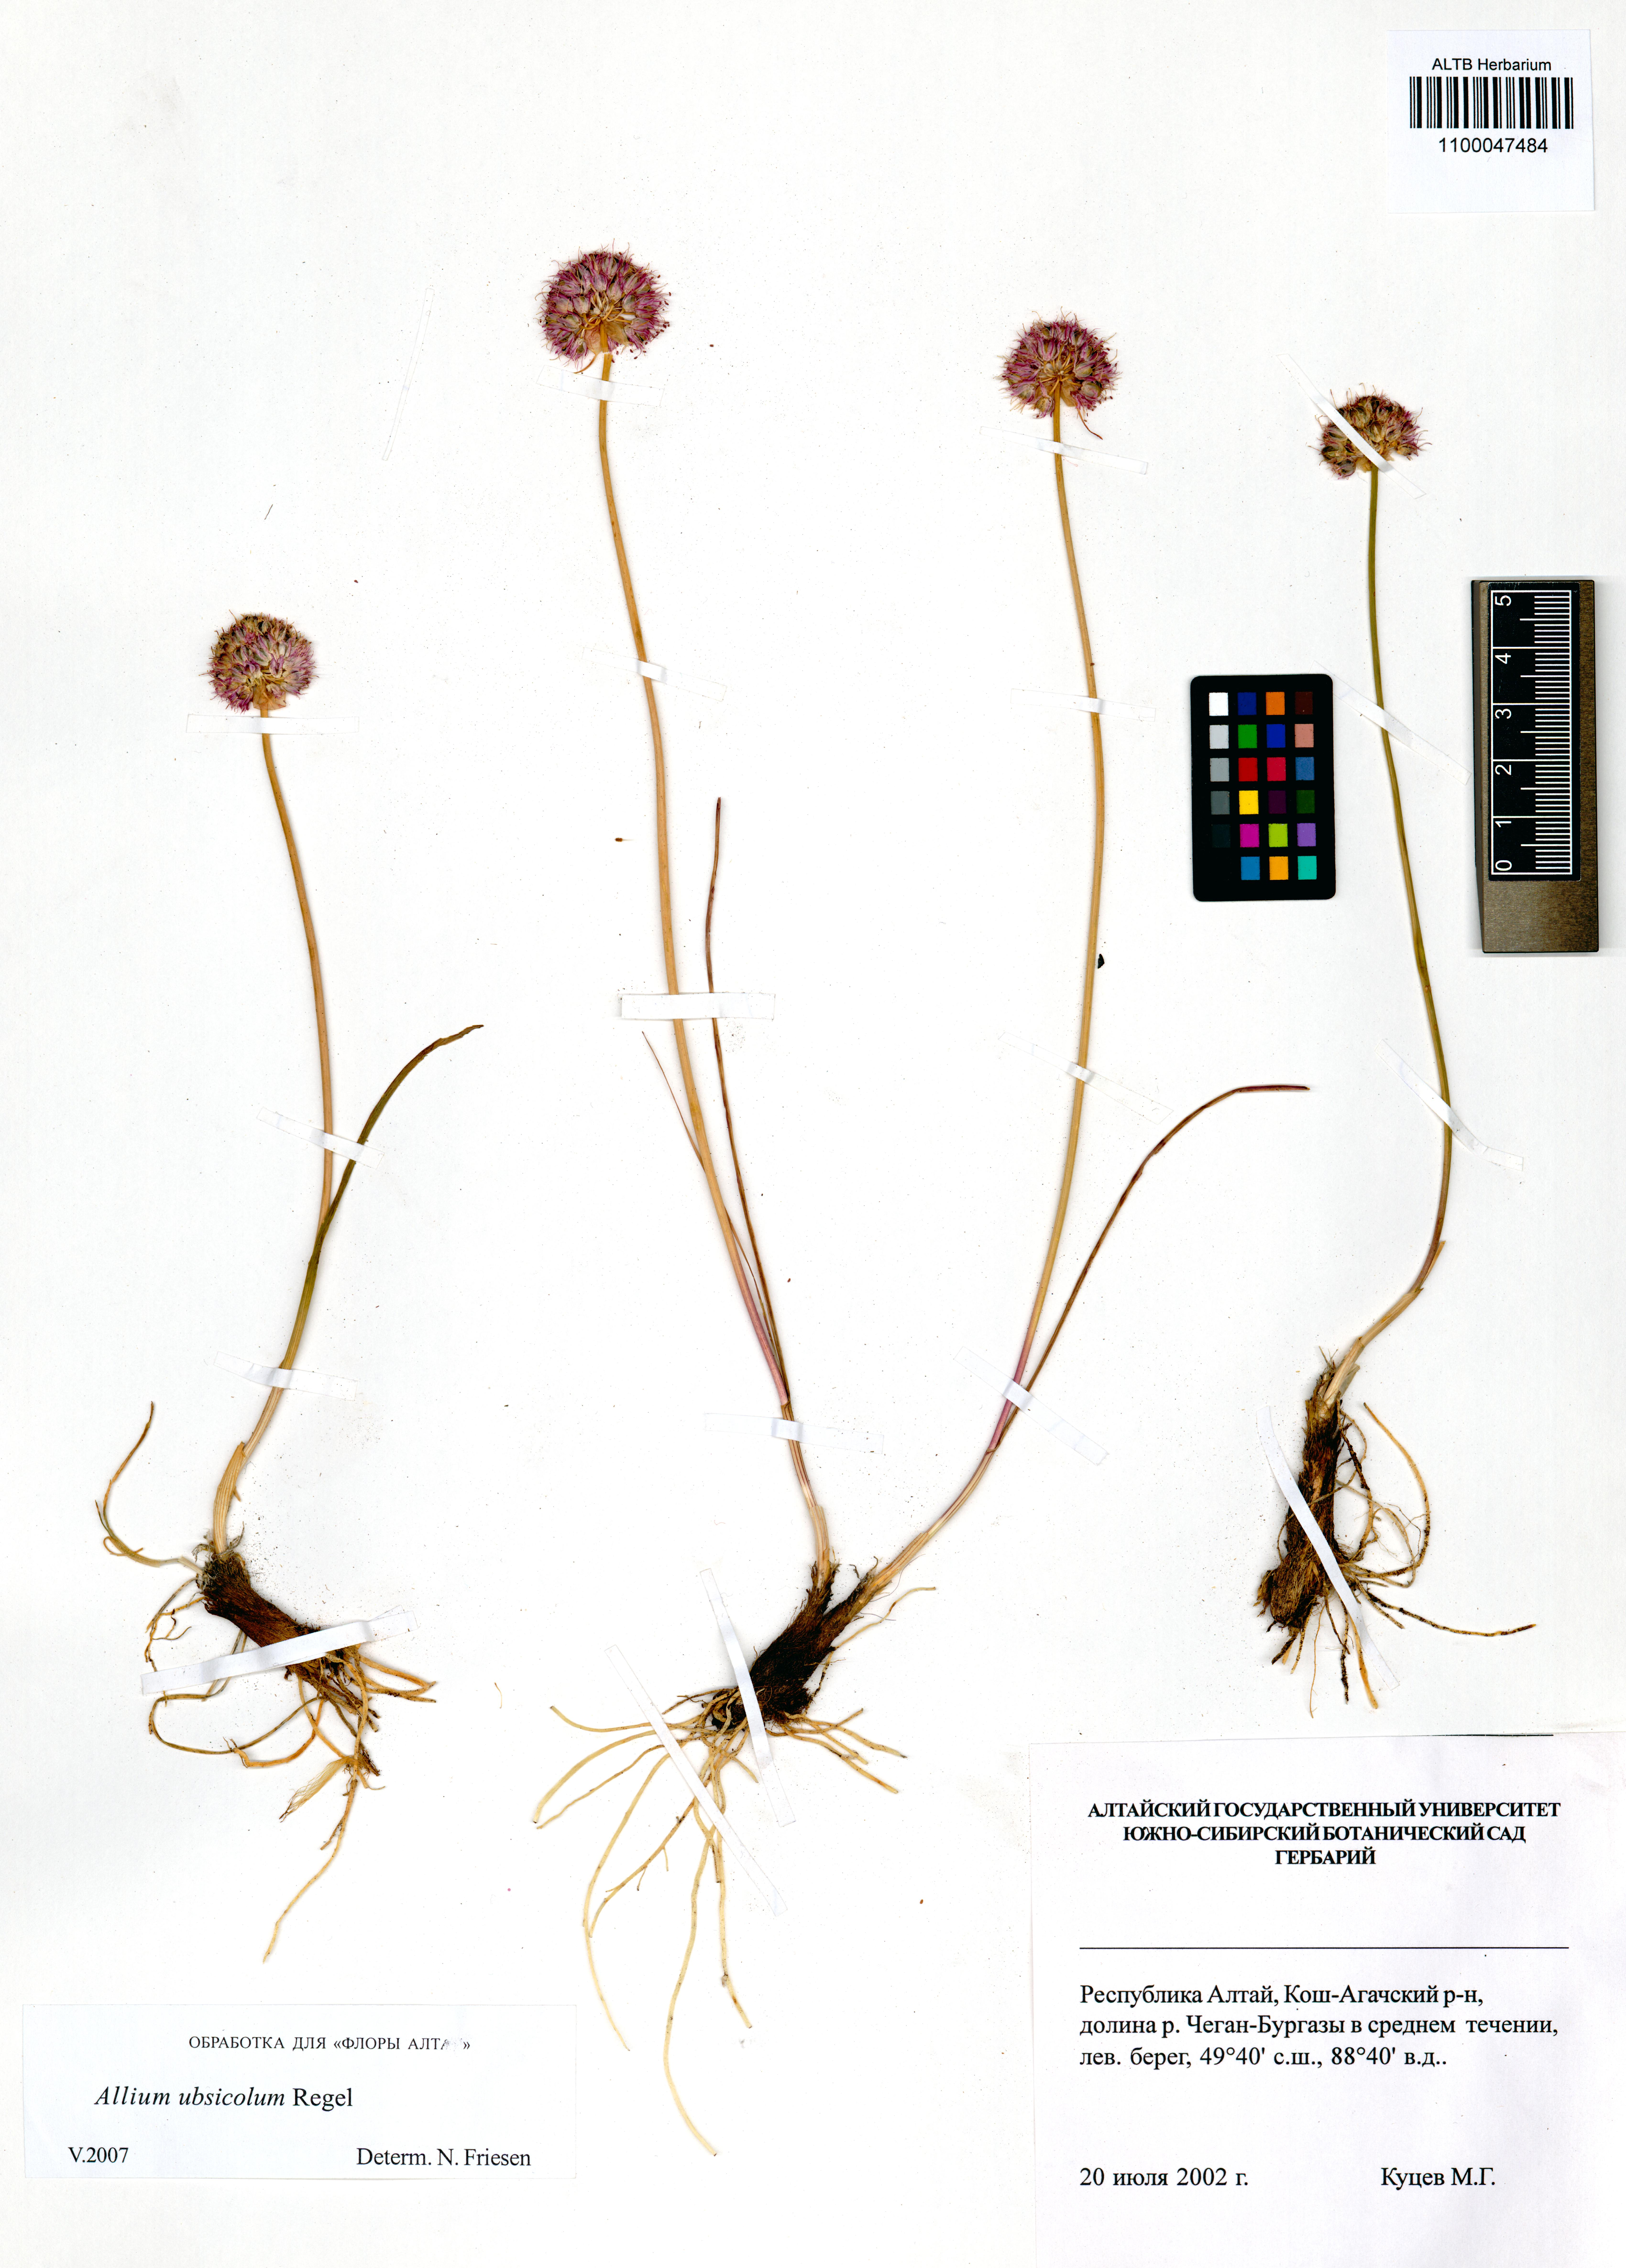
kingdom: Plantae
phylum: Tracheophyta
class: Liliopsida
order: Asparagales
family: Amaryllidaceae
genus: Allium
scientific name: Allium ubsicola
